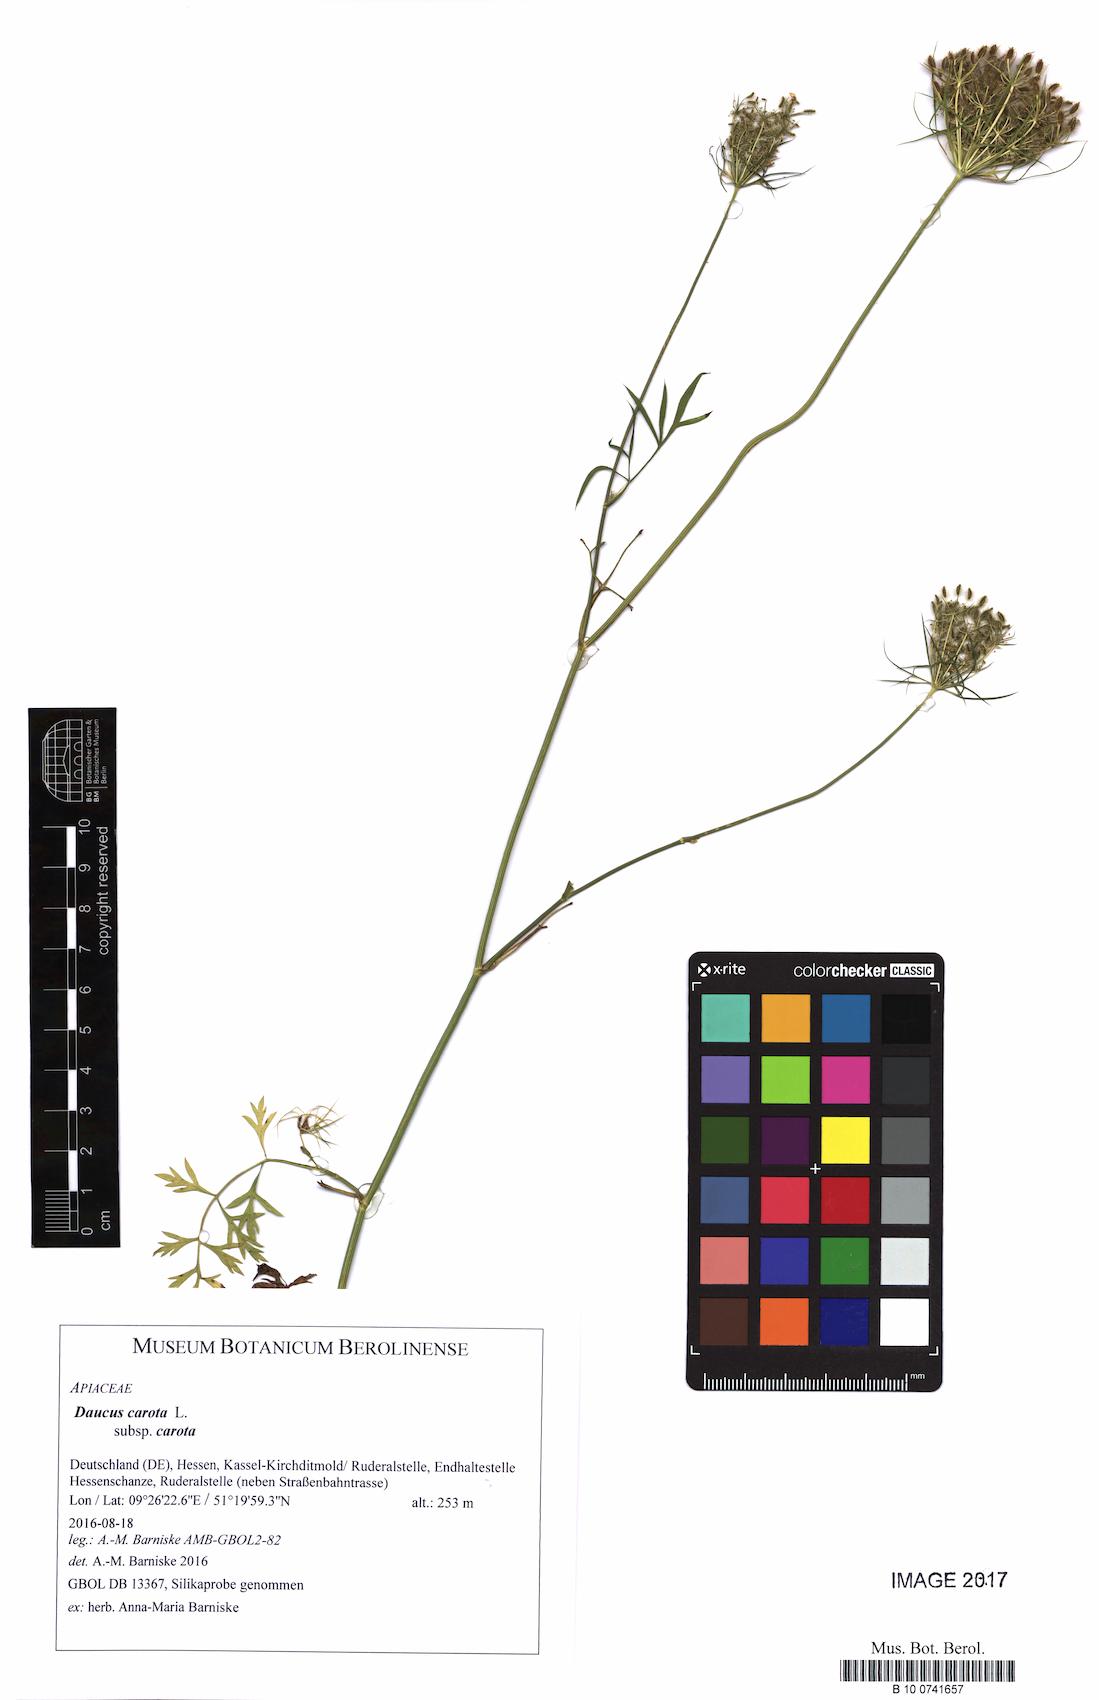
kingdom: Plantae
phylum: Tracheophyta
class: Magnoliopsida
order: Apiales
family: Apiaceae
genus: Daucus
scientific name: Daucus carota
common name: Wild carrot
